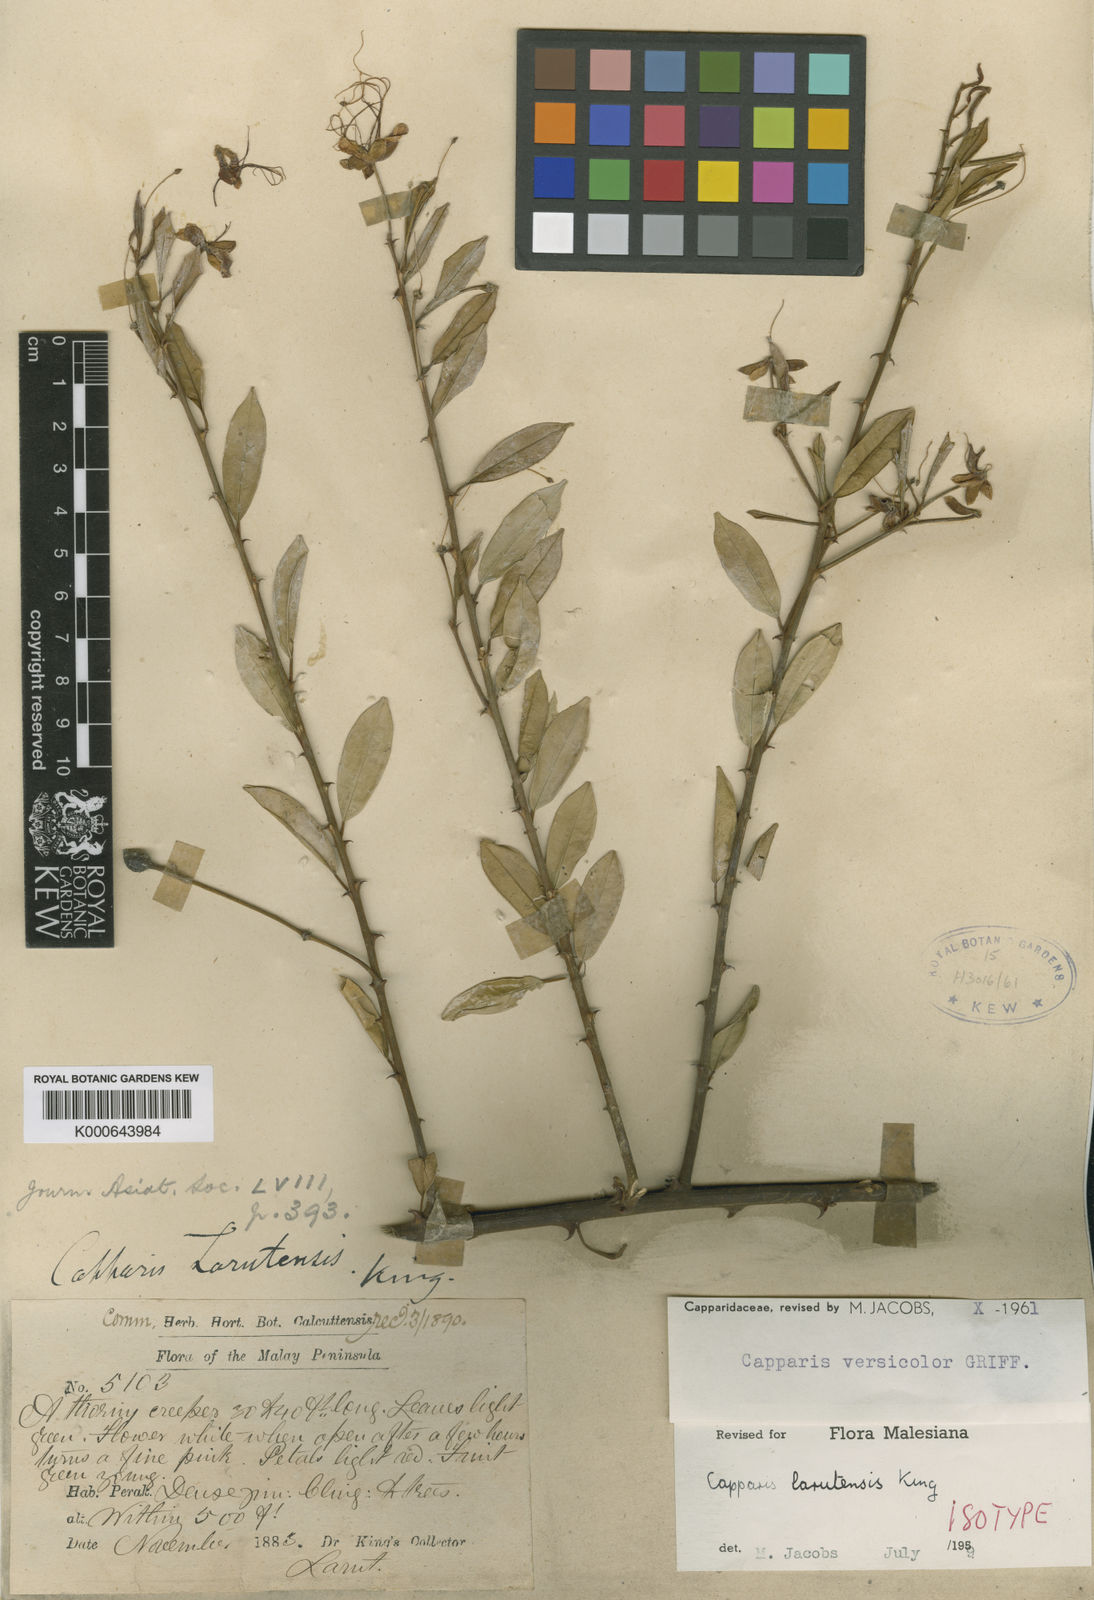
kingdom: Plantae
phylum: Tracheophyta
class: Magnoliopsida
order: Brassicales
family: Capparaceae
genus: Capparis
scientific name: Capparis versicolor
